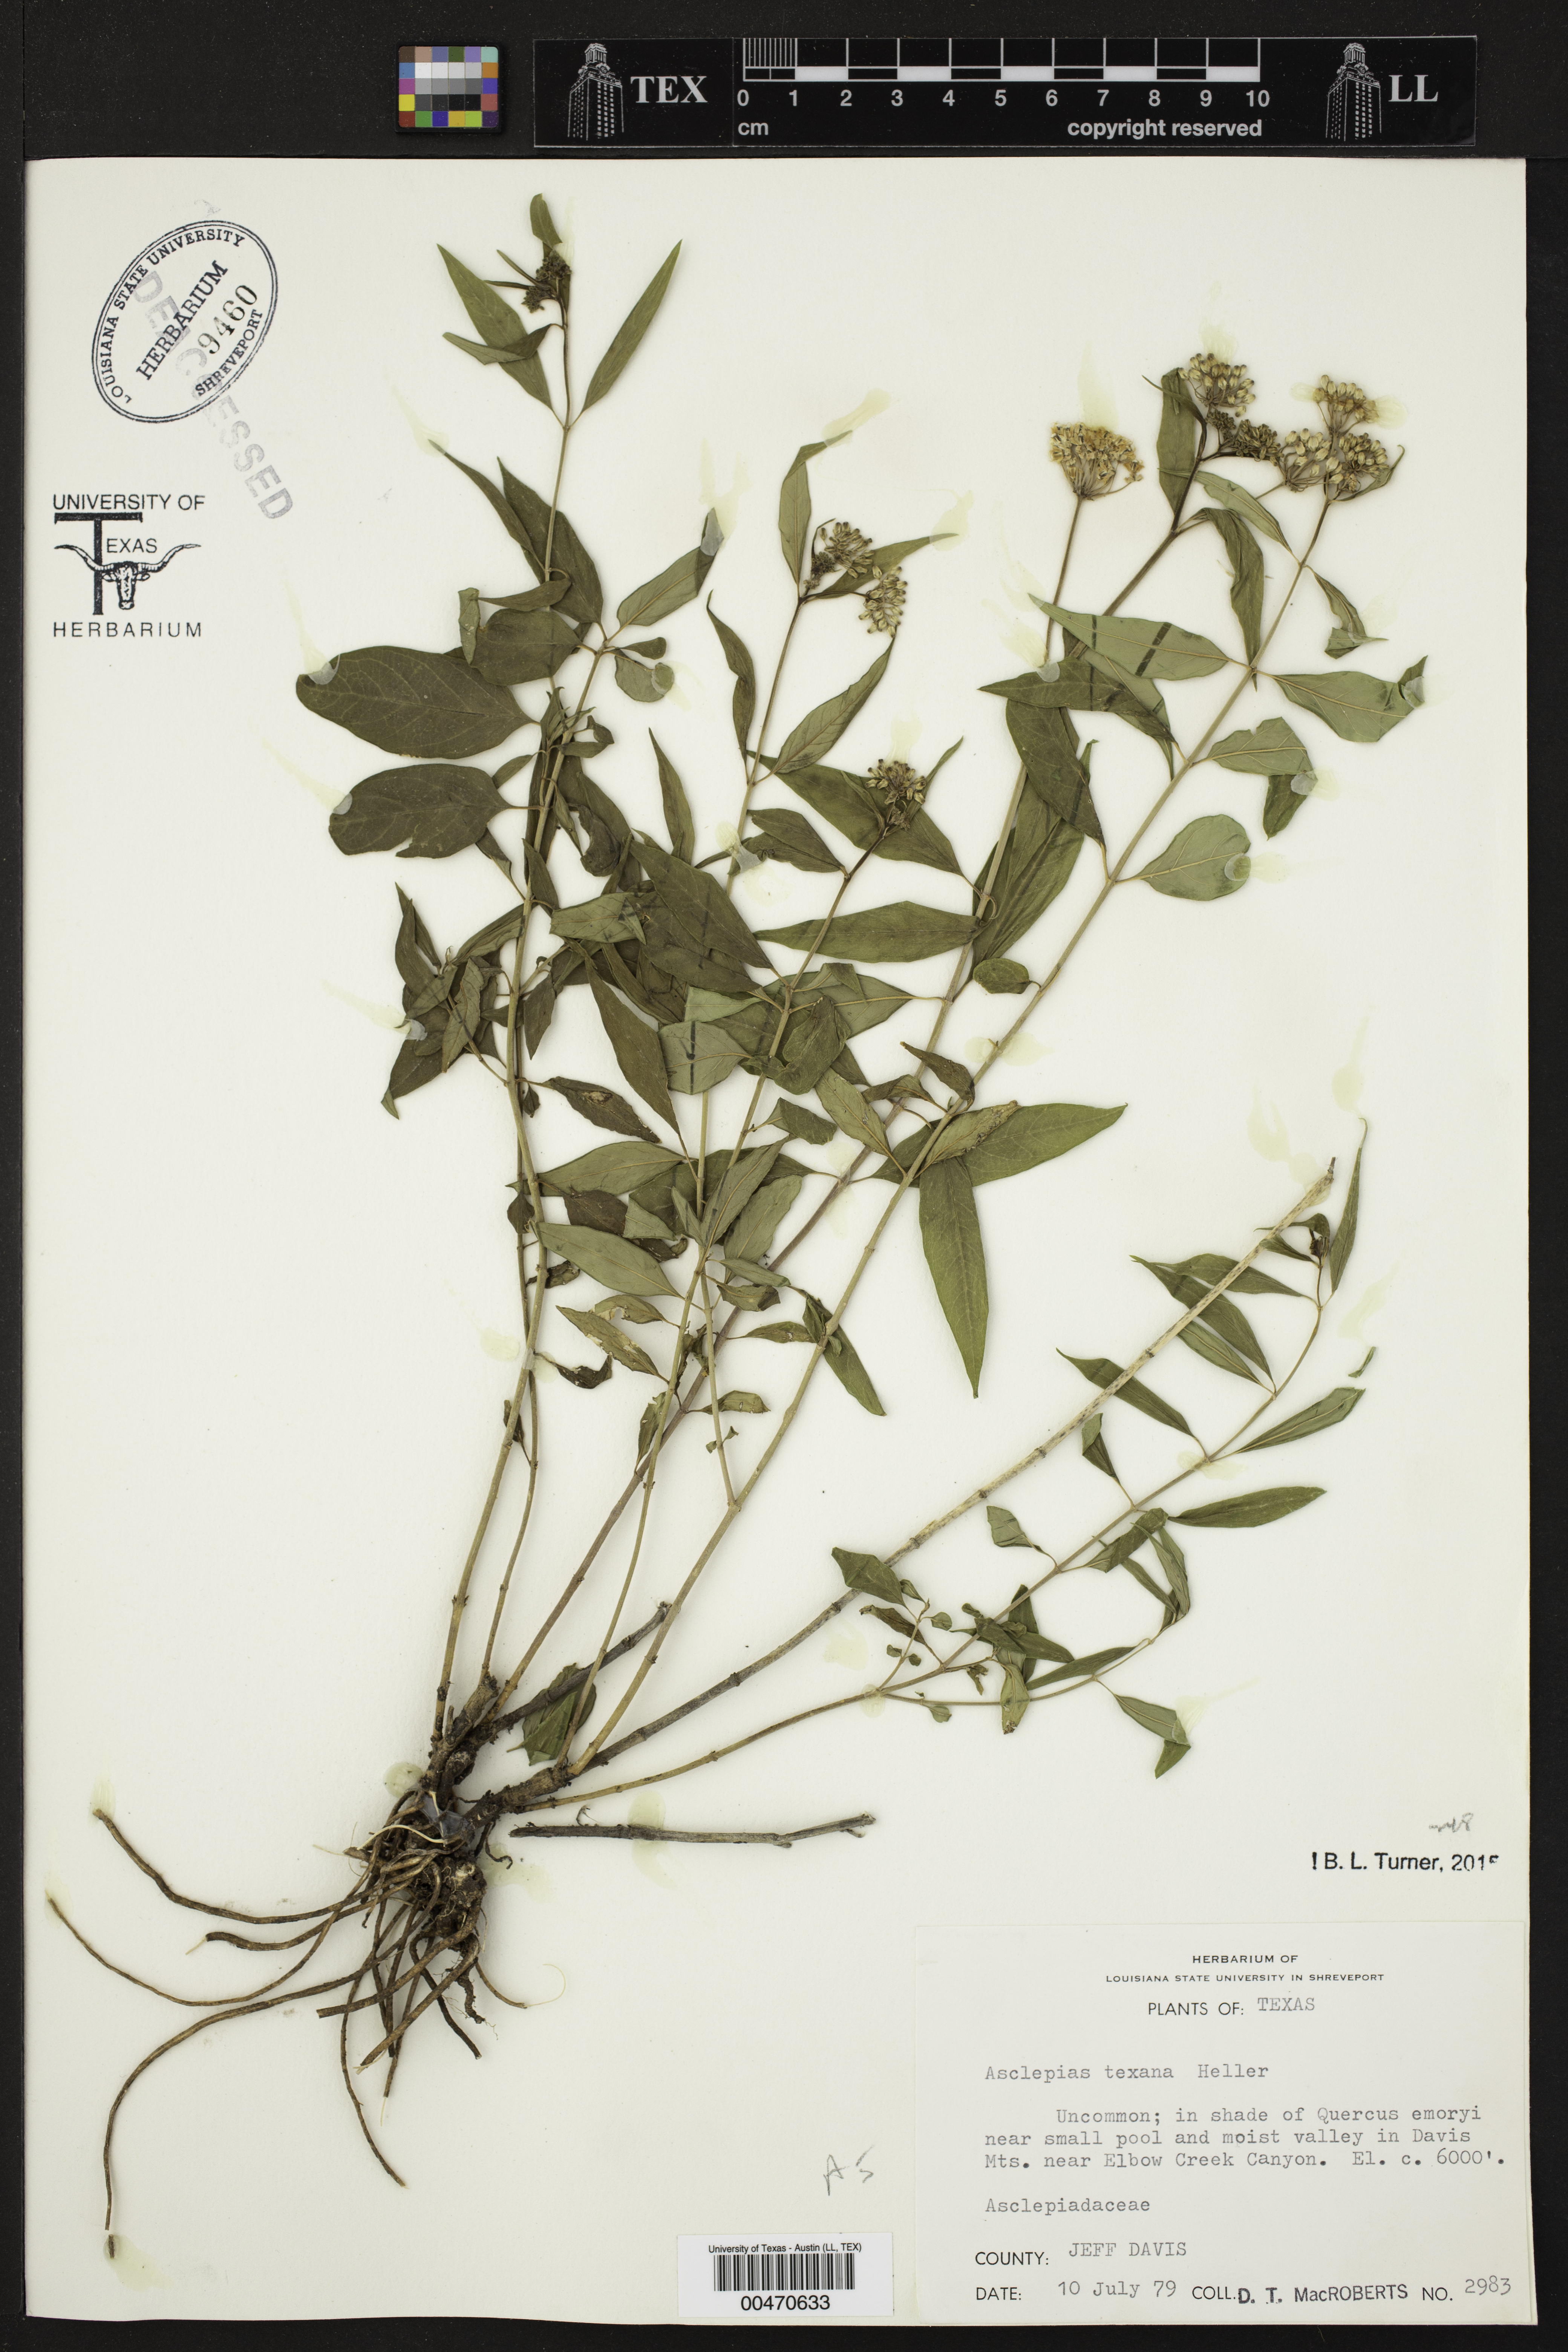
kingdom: Plantae
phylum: Tracheophyta
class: Magnoliopsida
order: Gentianales
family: Apocynaceae
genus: Asclepias
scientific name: Asclepias texana
